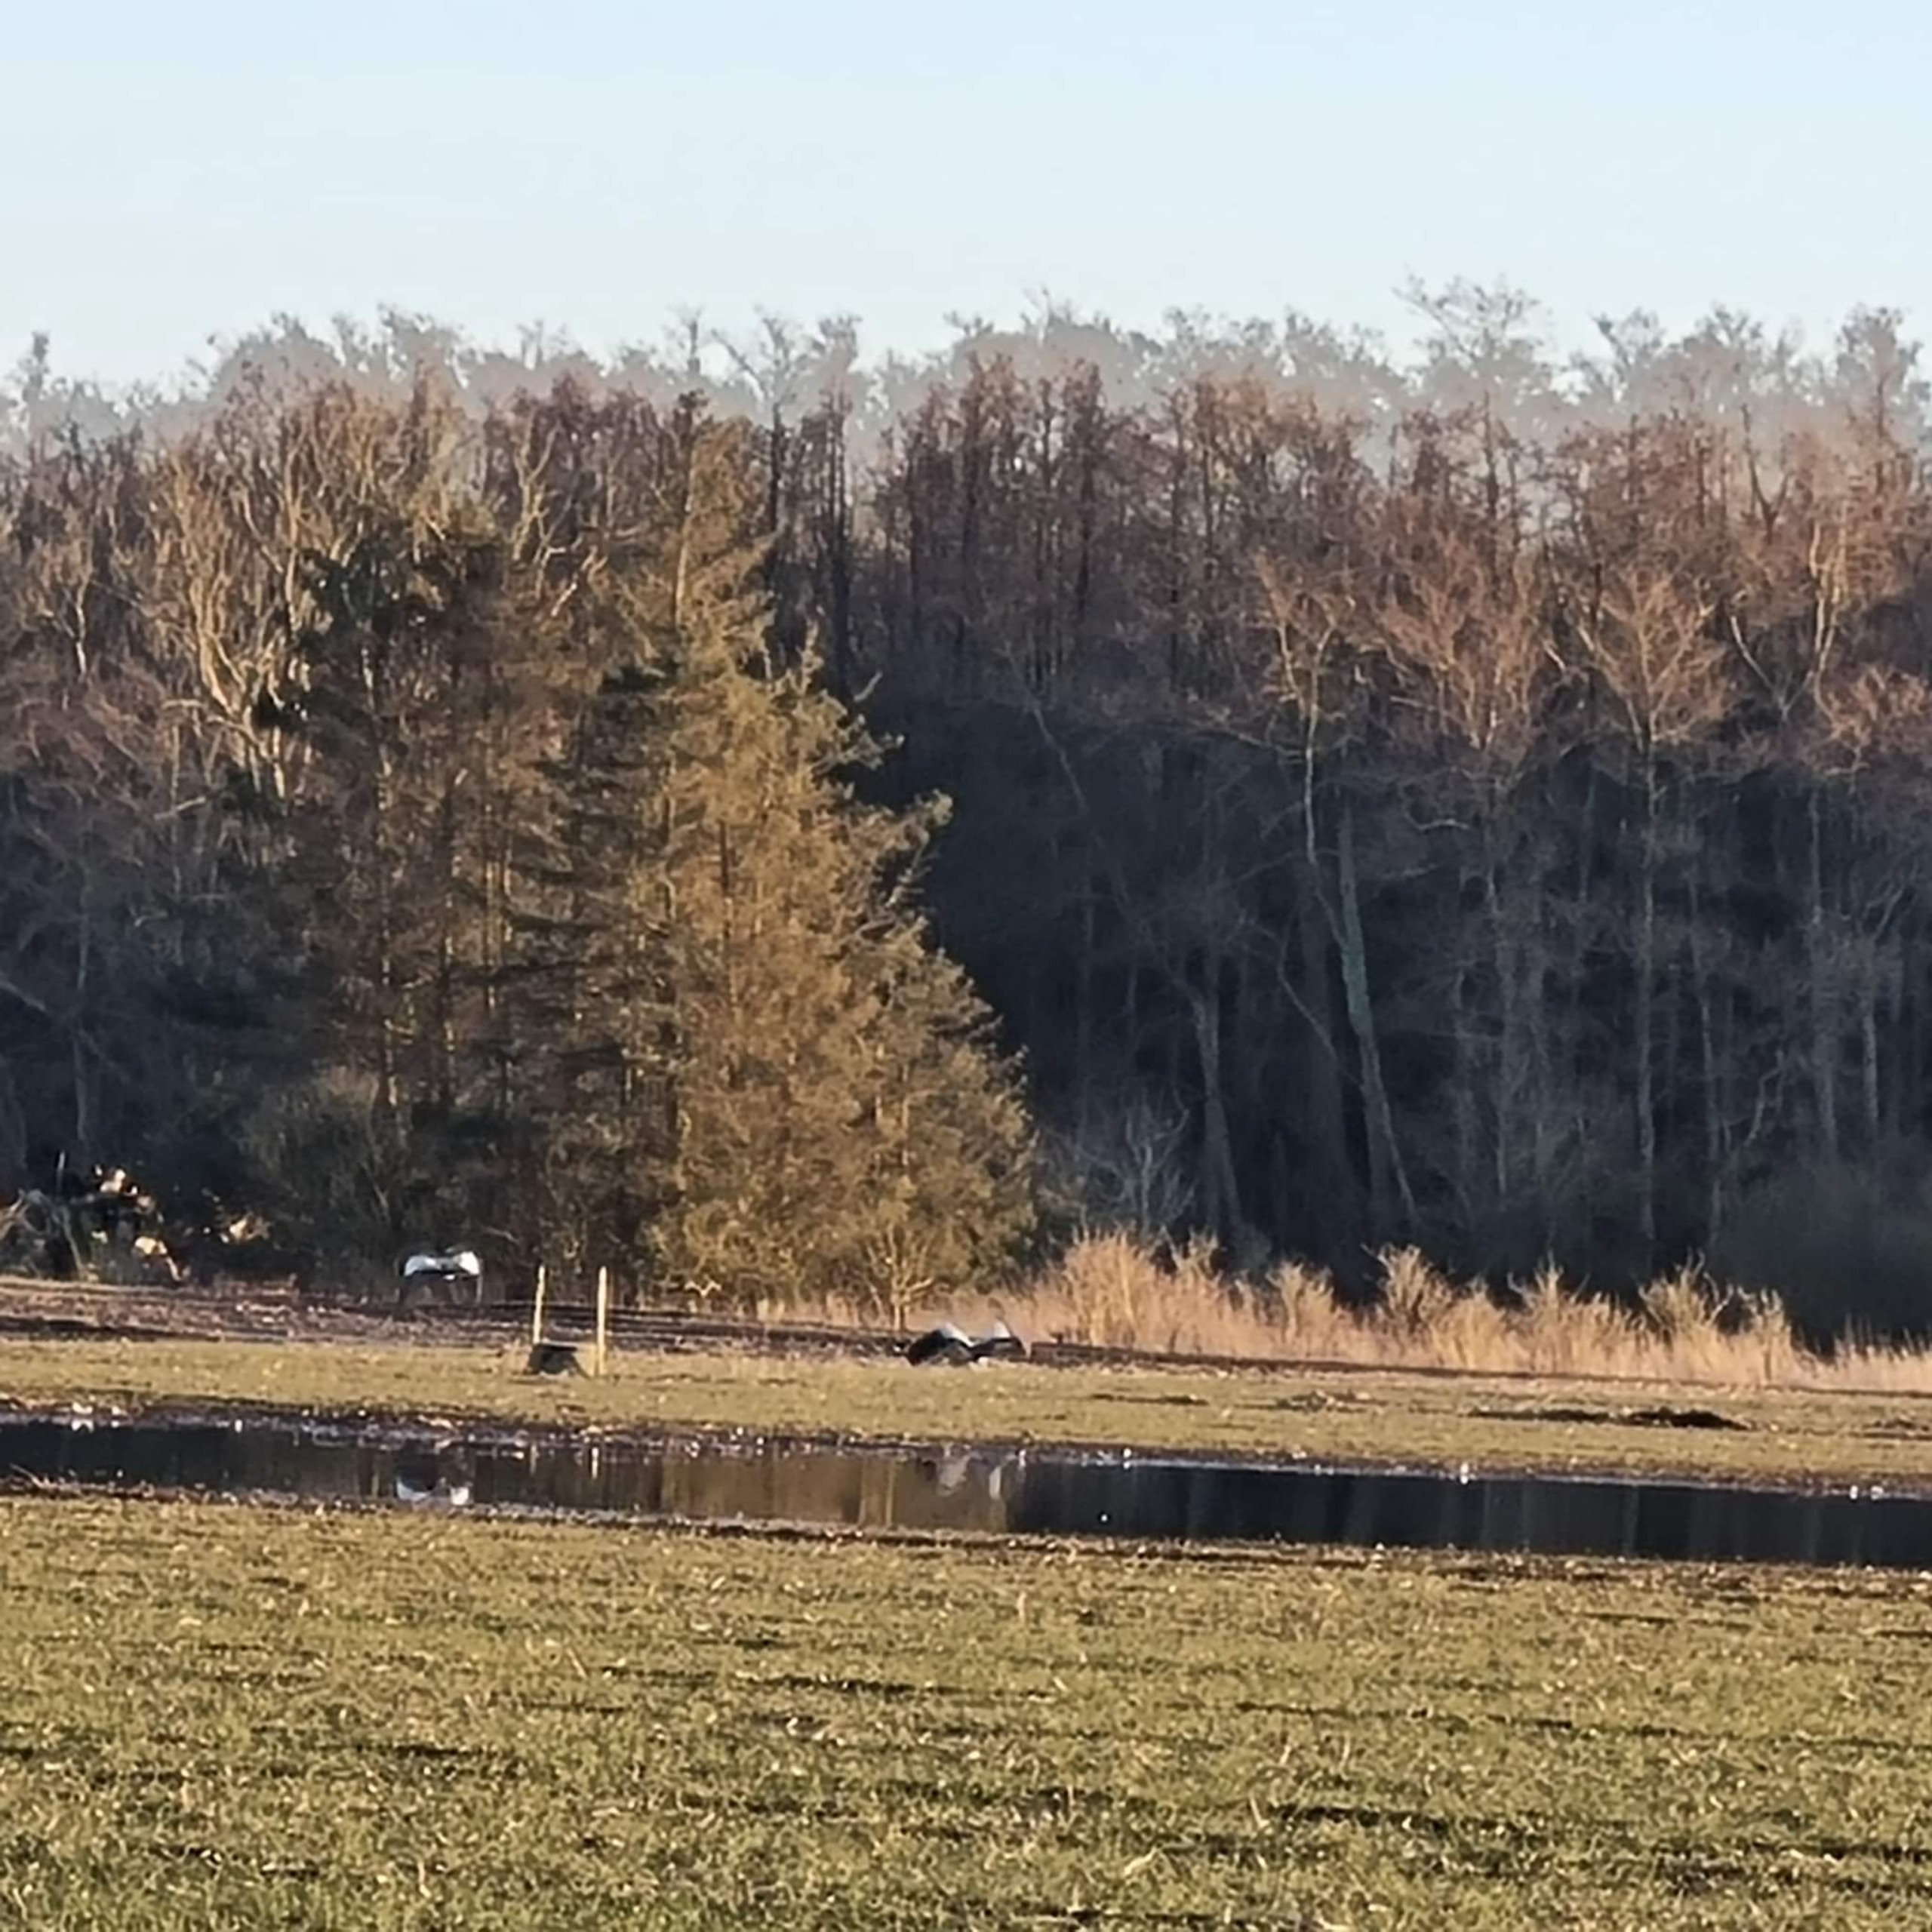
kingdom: Animalia
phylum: Chordata
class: Aves
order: Gruiformes
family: Gruidae
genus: Grus
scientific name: Grus grus
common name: Trane
